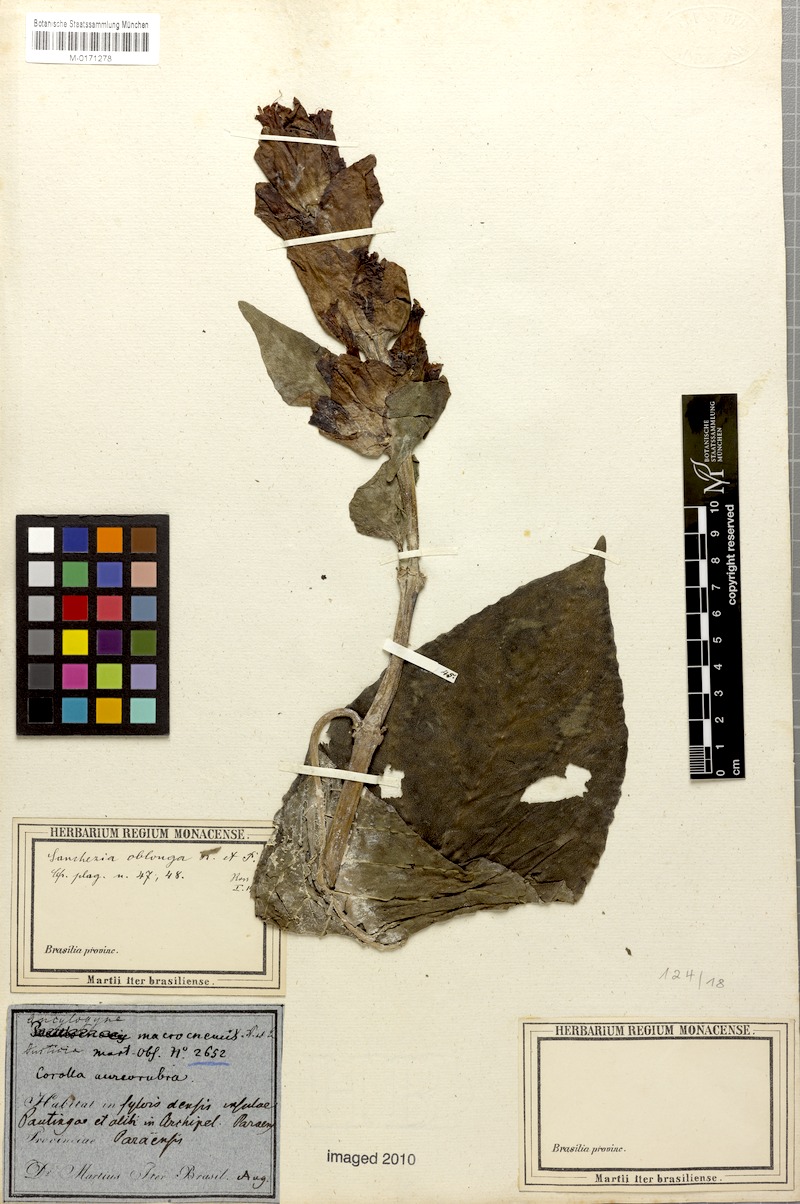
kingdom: Plantae
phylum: Tracheophyta
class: Magnoliopsida
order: Lamiales
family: Acanthaceae
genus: Sanchezia
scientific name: Sanchezia macrocnemis
